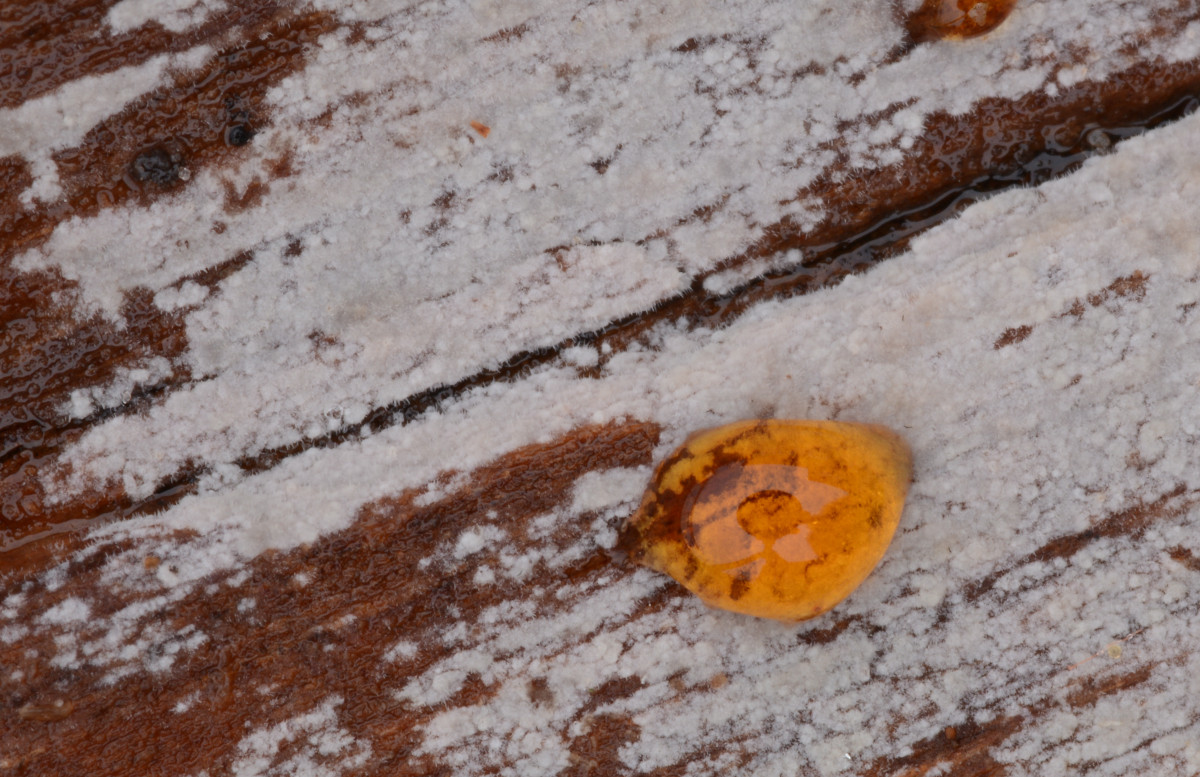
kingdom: Fungi
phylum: Basidiomycota
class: Agaricomycetes
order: Hymenochaetales
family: Rickenellaceae
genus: Peniophorella
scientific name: Peniophorella pubera
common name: dunet kalkskind
